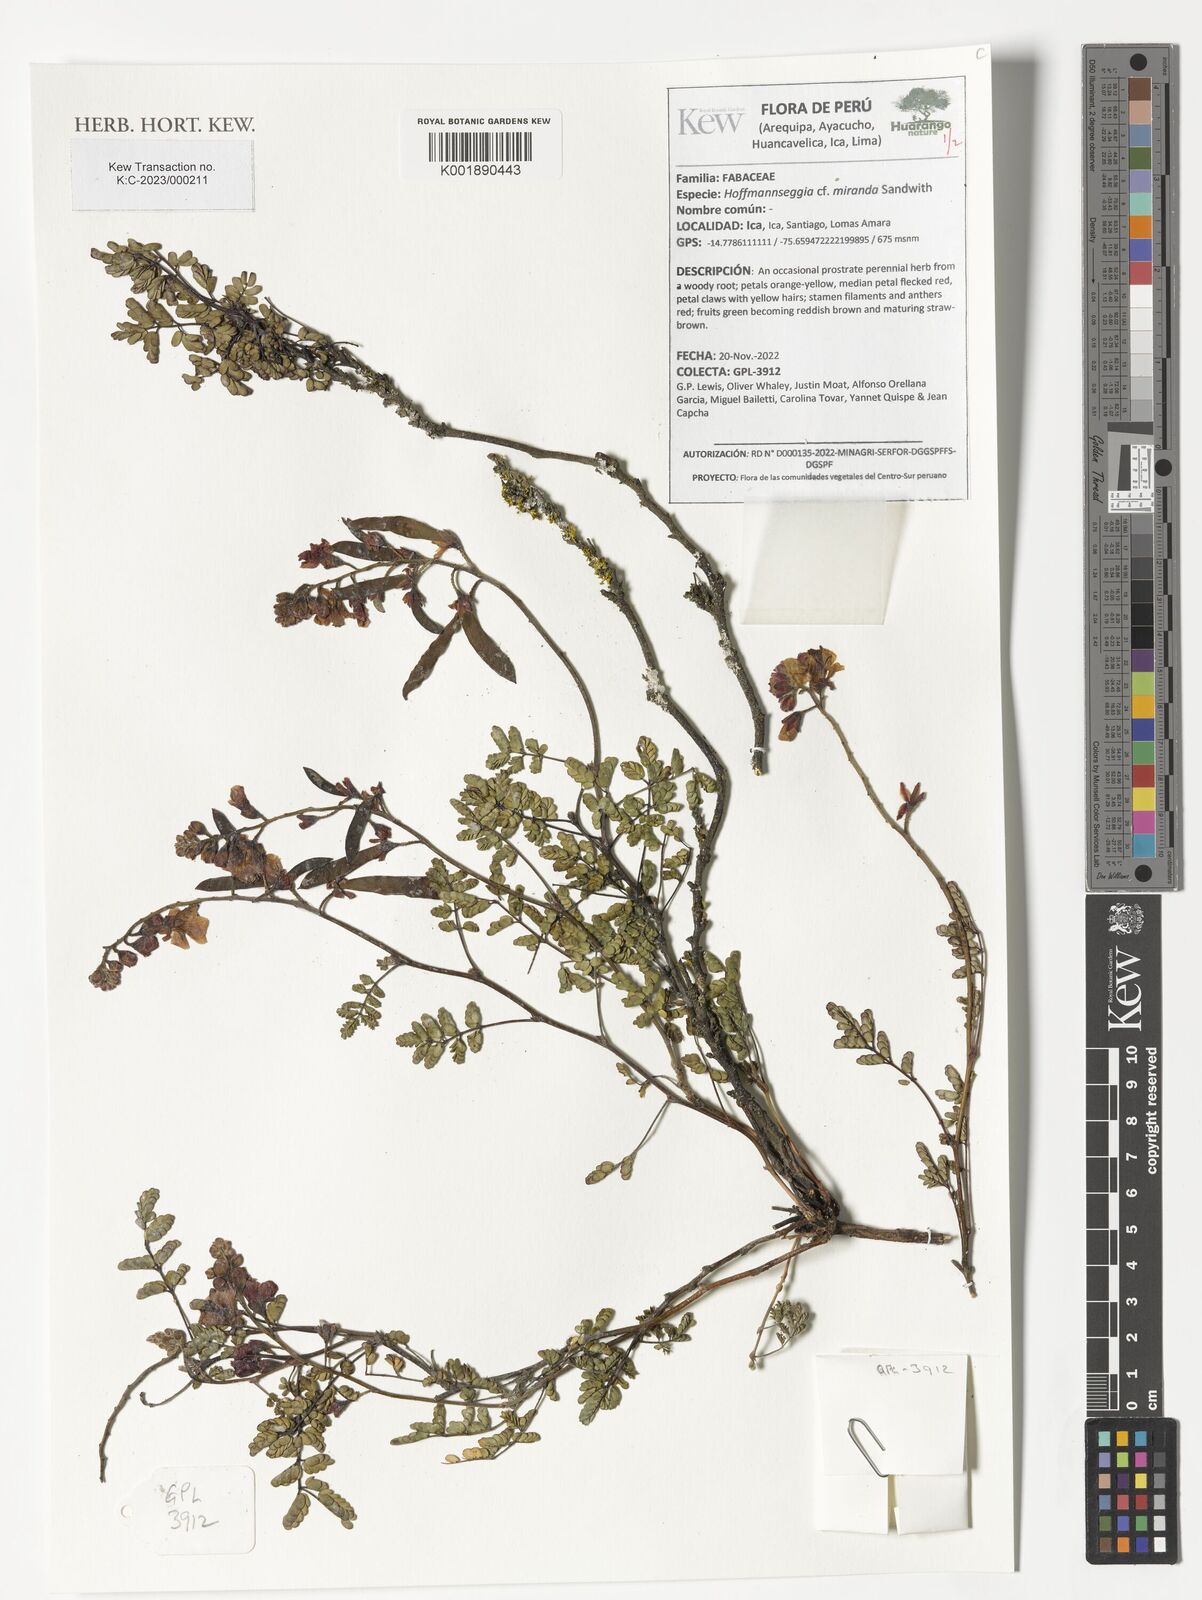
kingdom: Plantae
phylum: Tracheophyta
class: Magnoliopsida
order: Fabales
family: Fabaceae
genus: Hoffmannseggia
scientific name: Hoffmannseggia miranda
